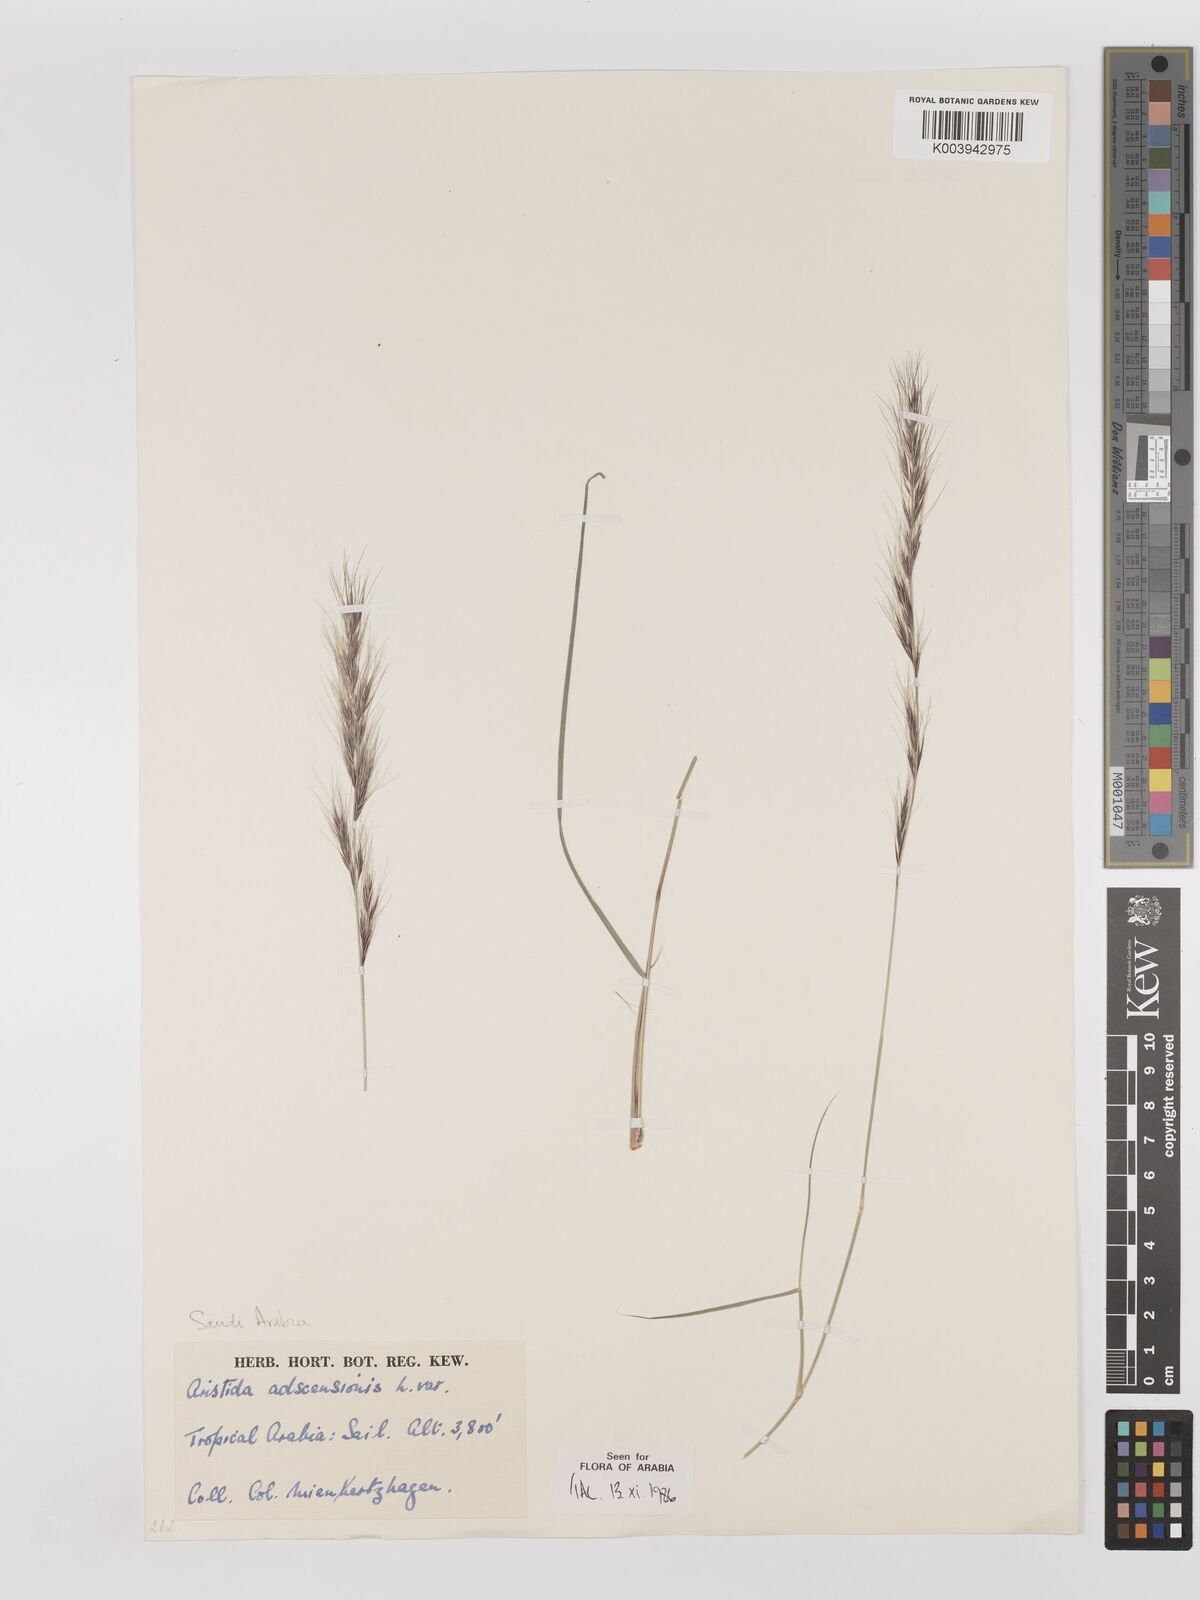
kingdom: Plantae
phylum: Tracheophyta
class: Liliopsida
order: Poales
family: Poaceae
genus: Aristida
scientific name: Aristida adscensionis
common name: Sixweeks threeawn
